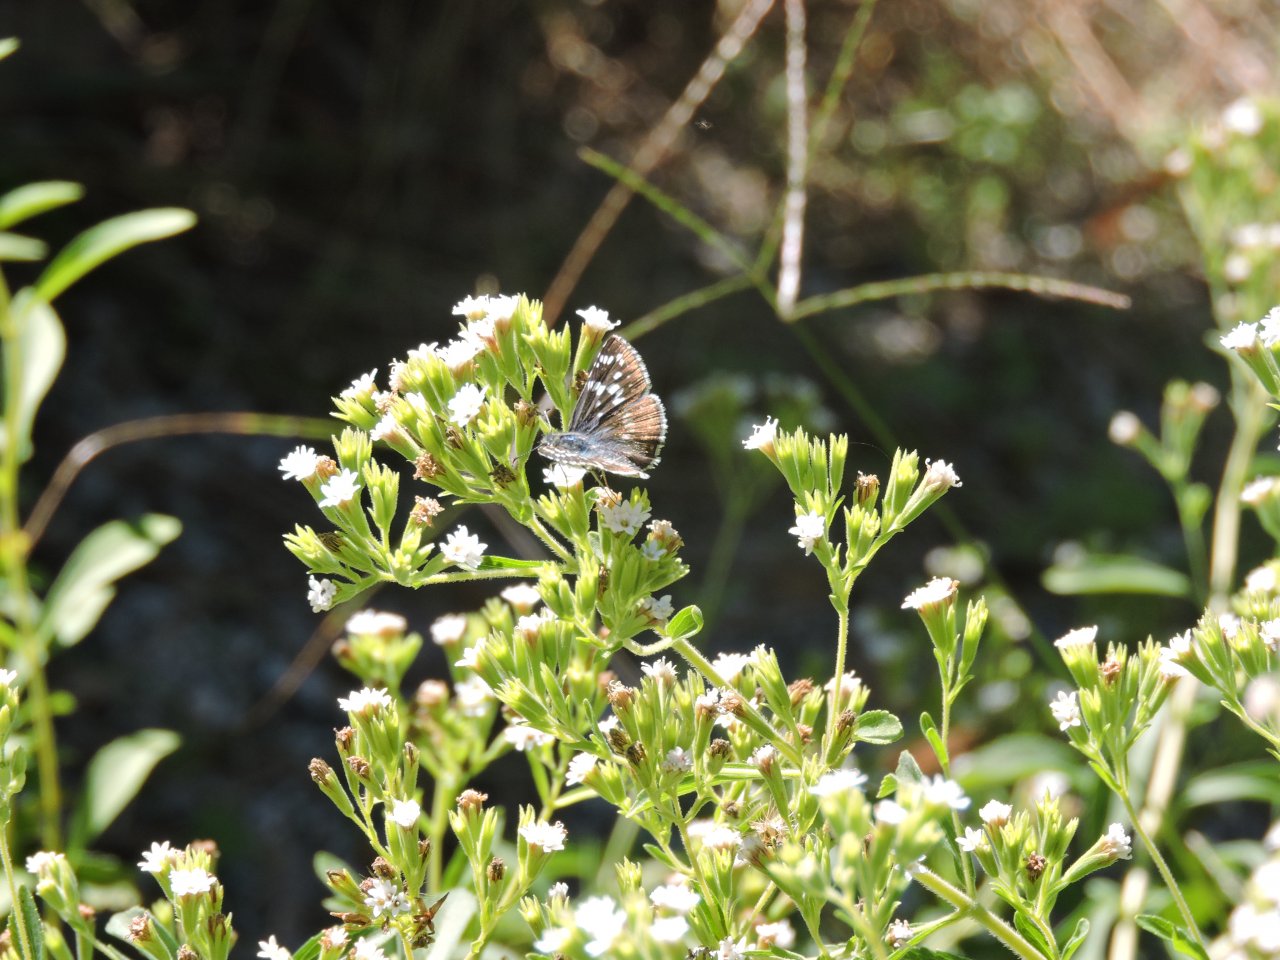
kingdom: Animalia
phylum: Arthropoda
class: Insecta
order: Lepidoptera
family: Hesperiidae
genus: Pyrgus
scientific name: Pyrgus
